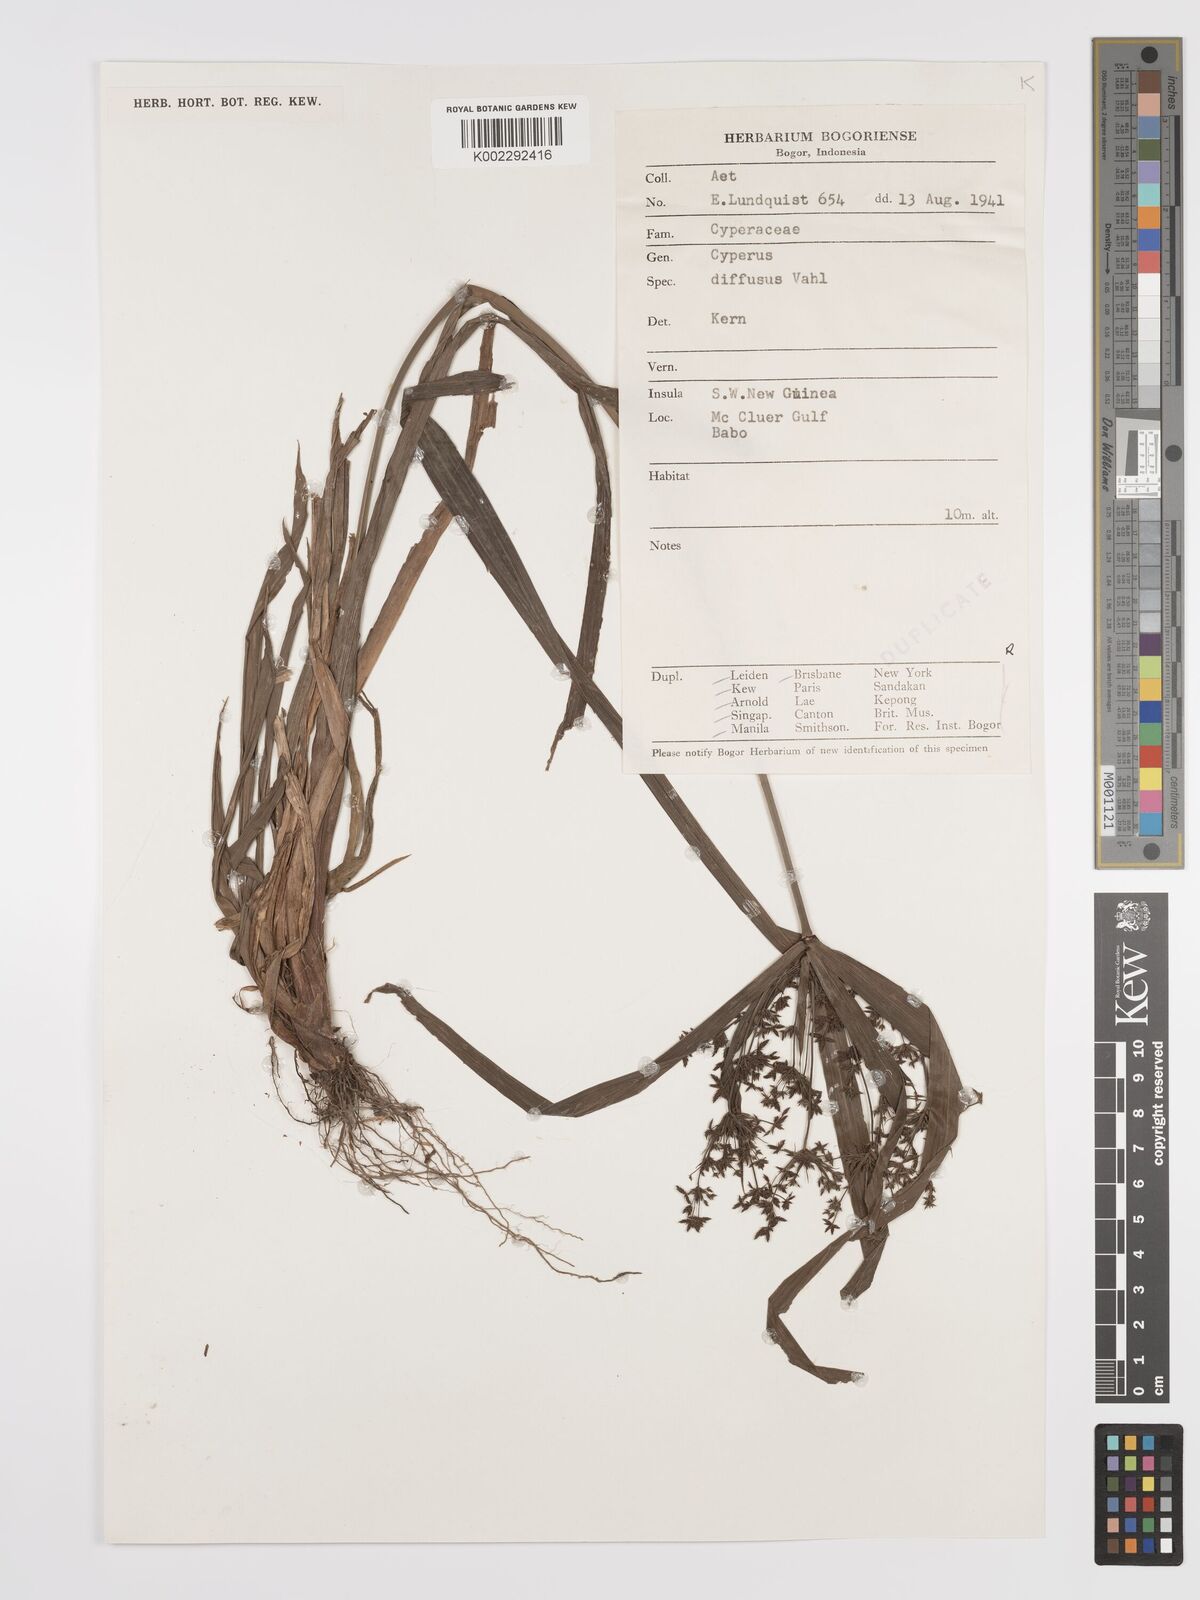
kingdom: Plantae
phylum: Tracheophyta
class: Liliopsida
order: Poales
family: Cyperaceae
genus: Cyperus
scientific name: Cyperus diffusus
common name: Dwarf umbrella grass
